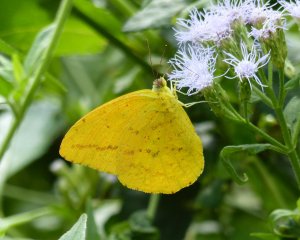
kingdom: Animalia
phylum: Arthropoda
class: Insecta
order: Lepidoptera
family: Pieridae
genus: Phoebis
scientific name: Phoebis agarithe
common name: Large Orange Sulphur
